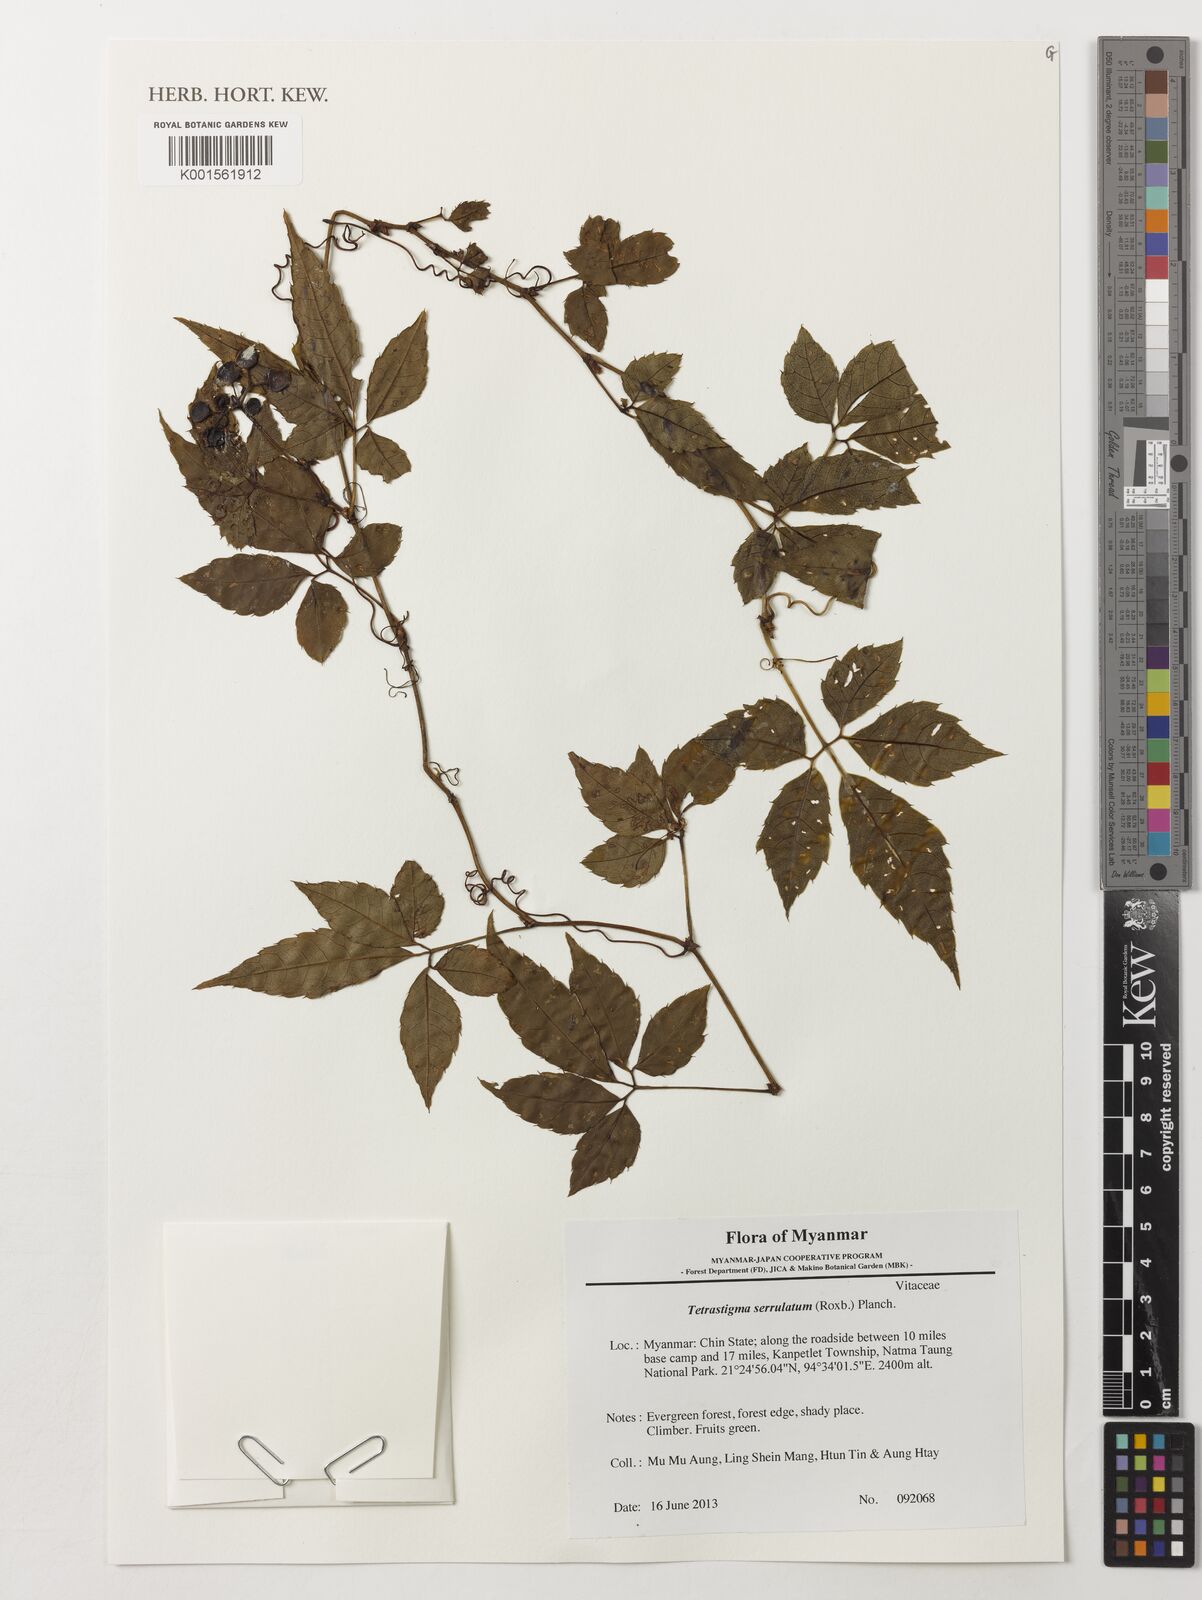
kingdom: Plantae
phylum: Tracheophyta
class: Magnoliopsida
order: Vitales
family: Vitaceae
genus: Tetrastigma
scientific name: Tetrastigma serrulatum
